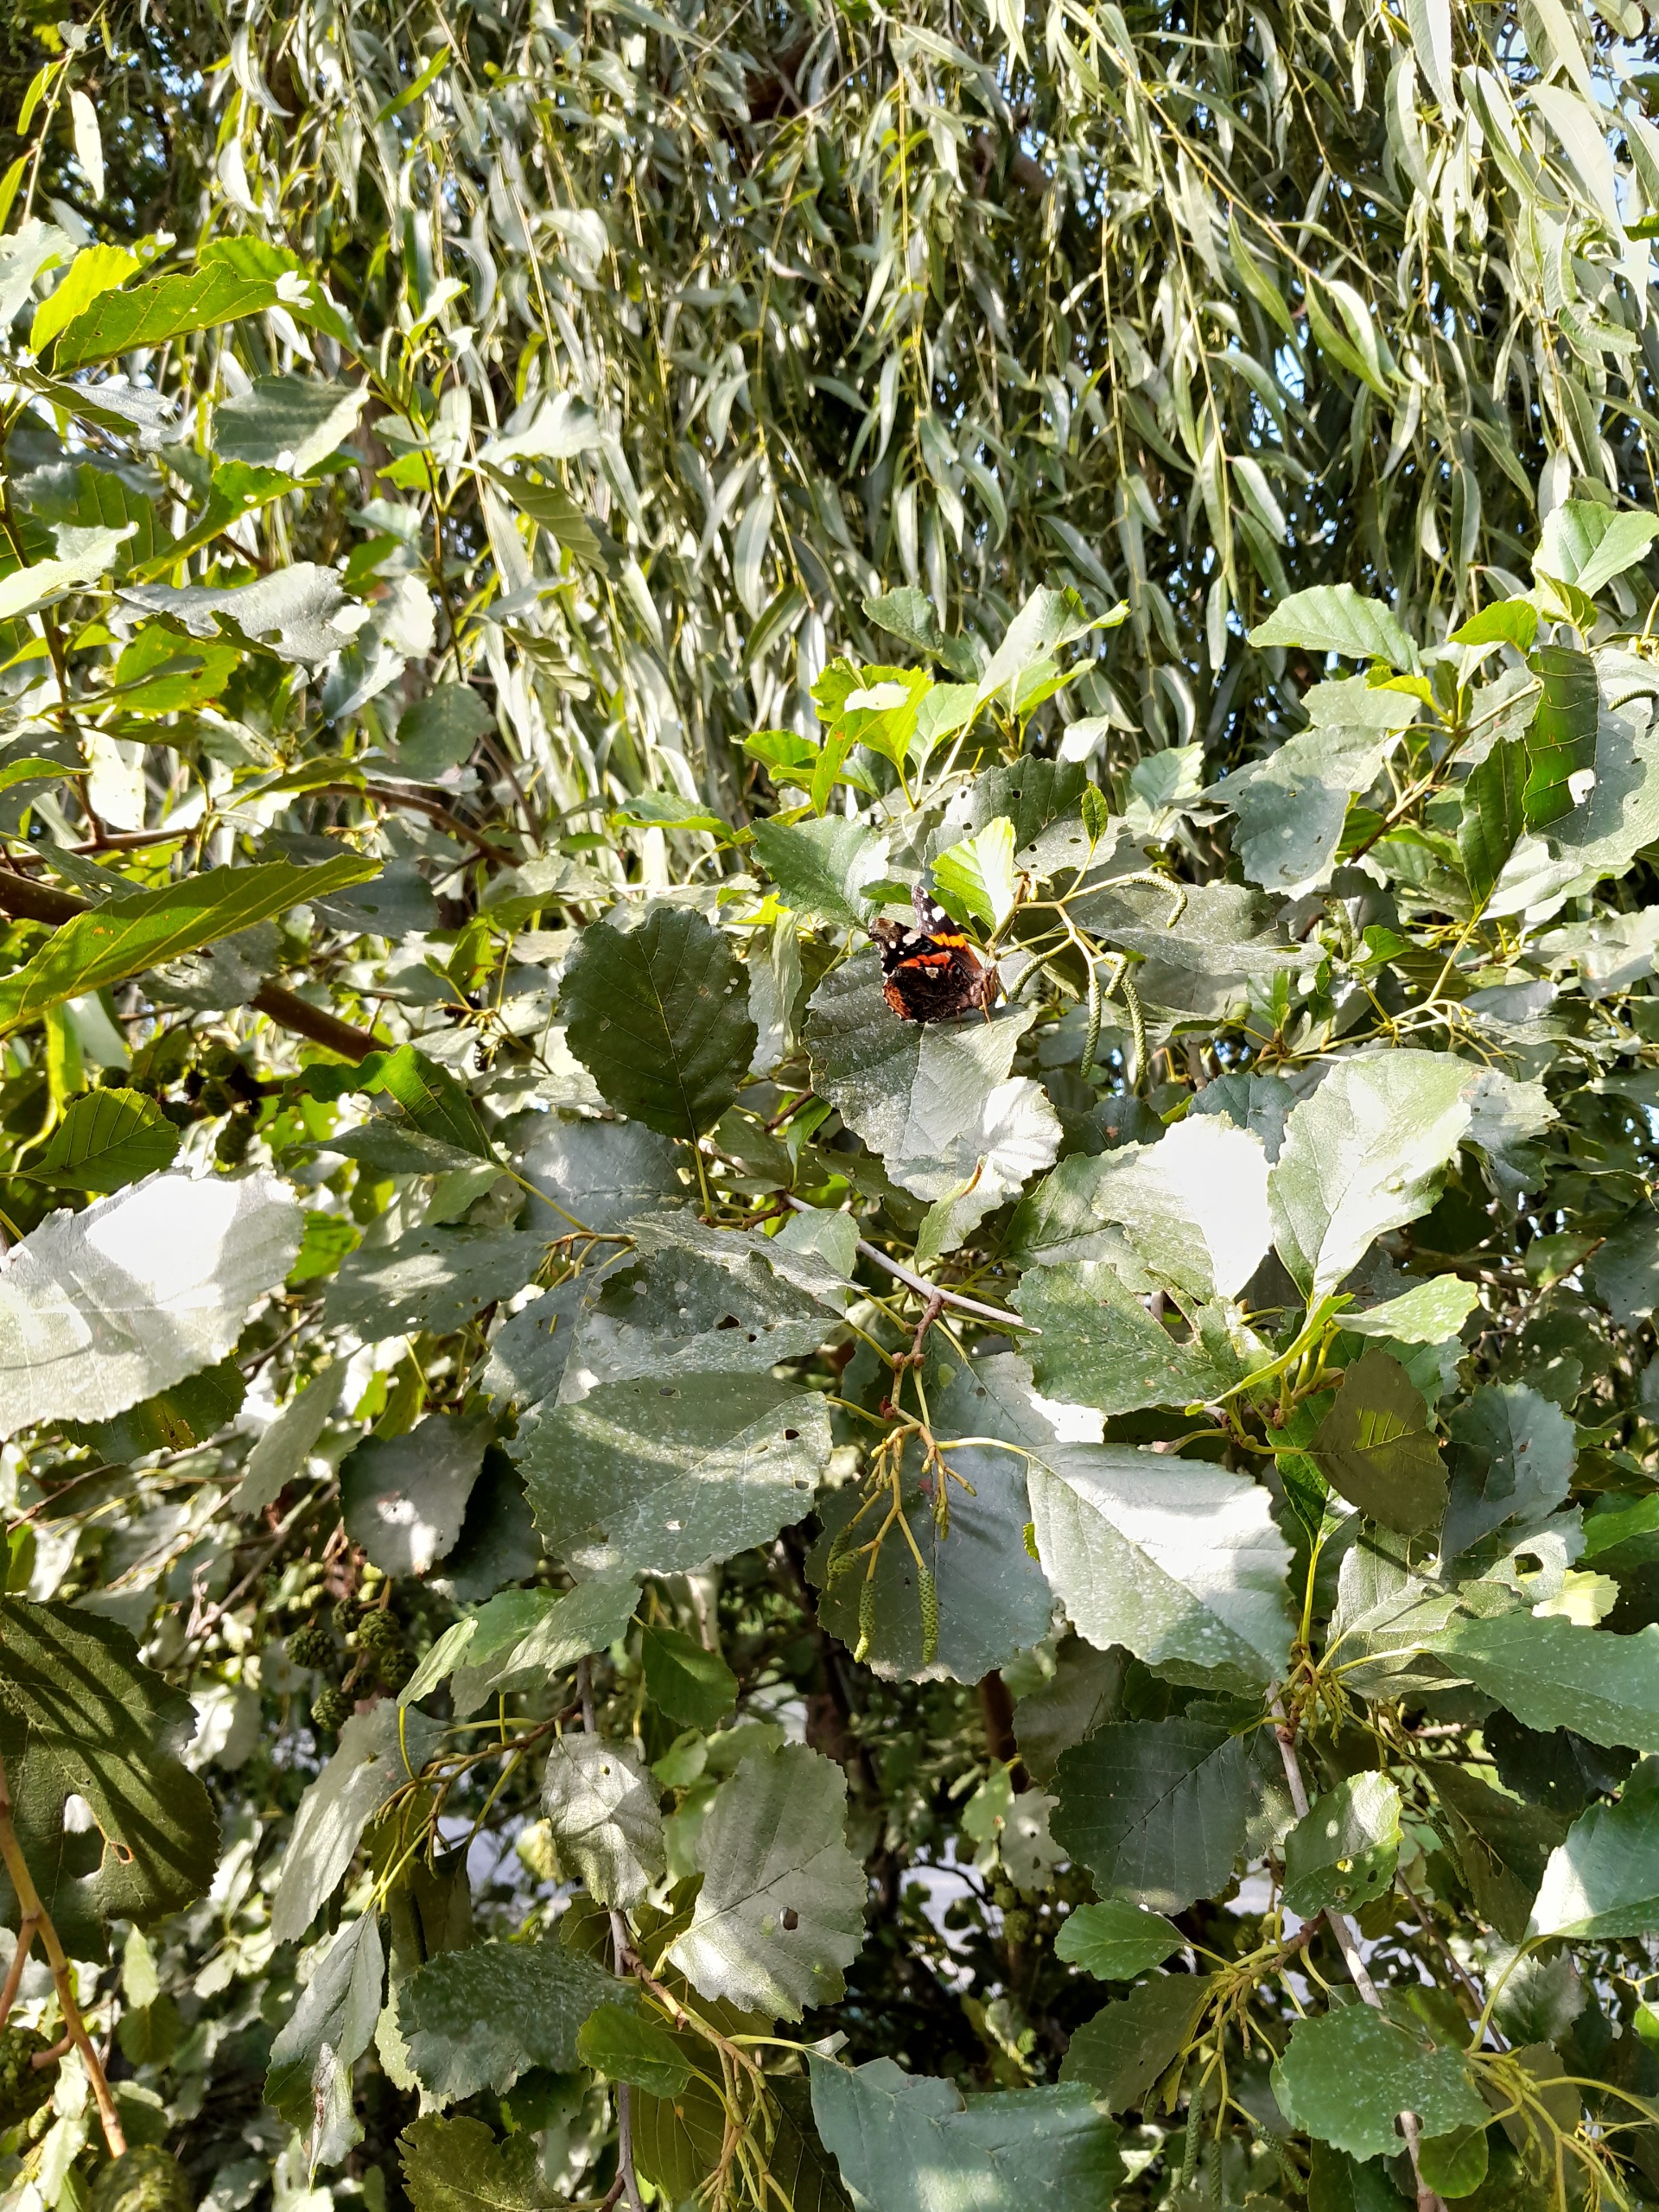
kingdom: Animalia
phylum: Arthropoda
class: Insecta
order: Lepidoptera
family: Nymphalidae
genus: Vanessa
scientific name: Vanessa atalanta
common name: Admiral
